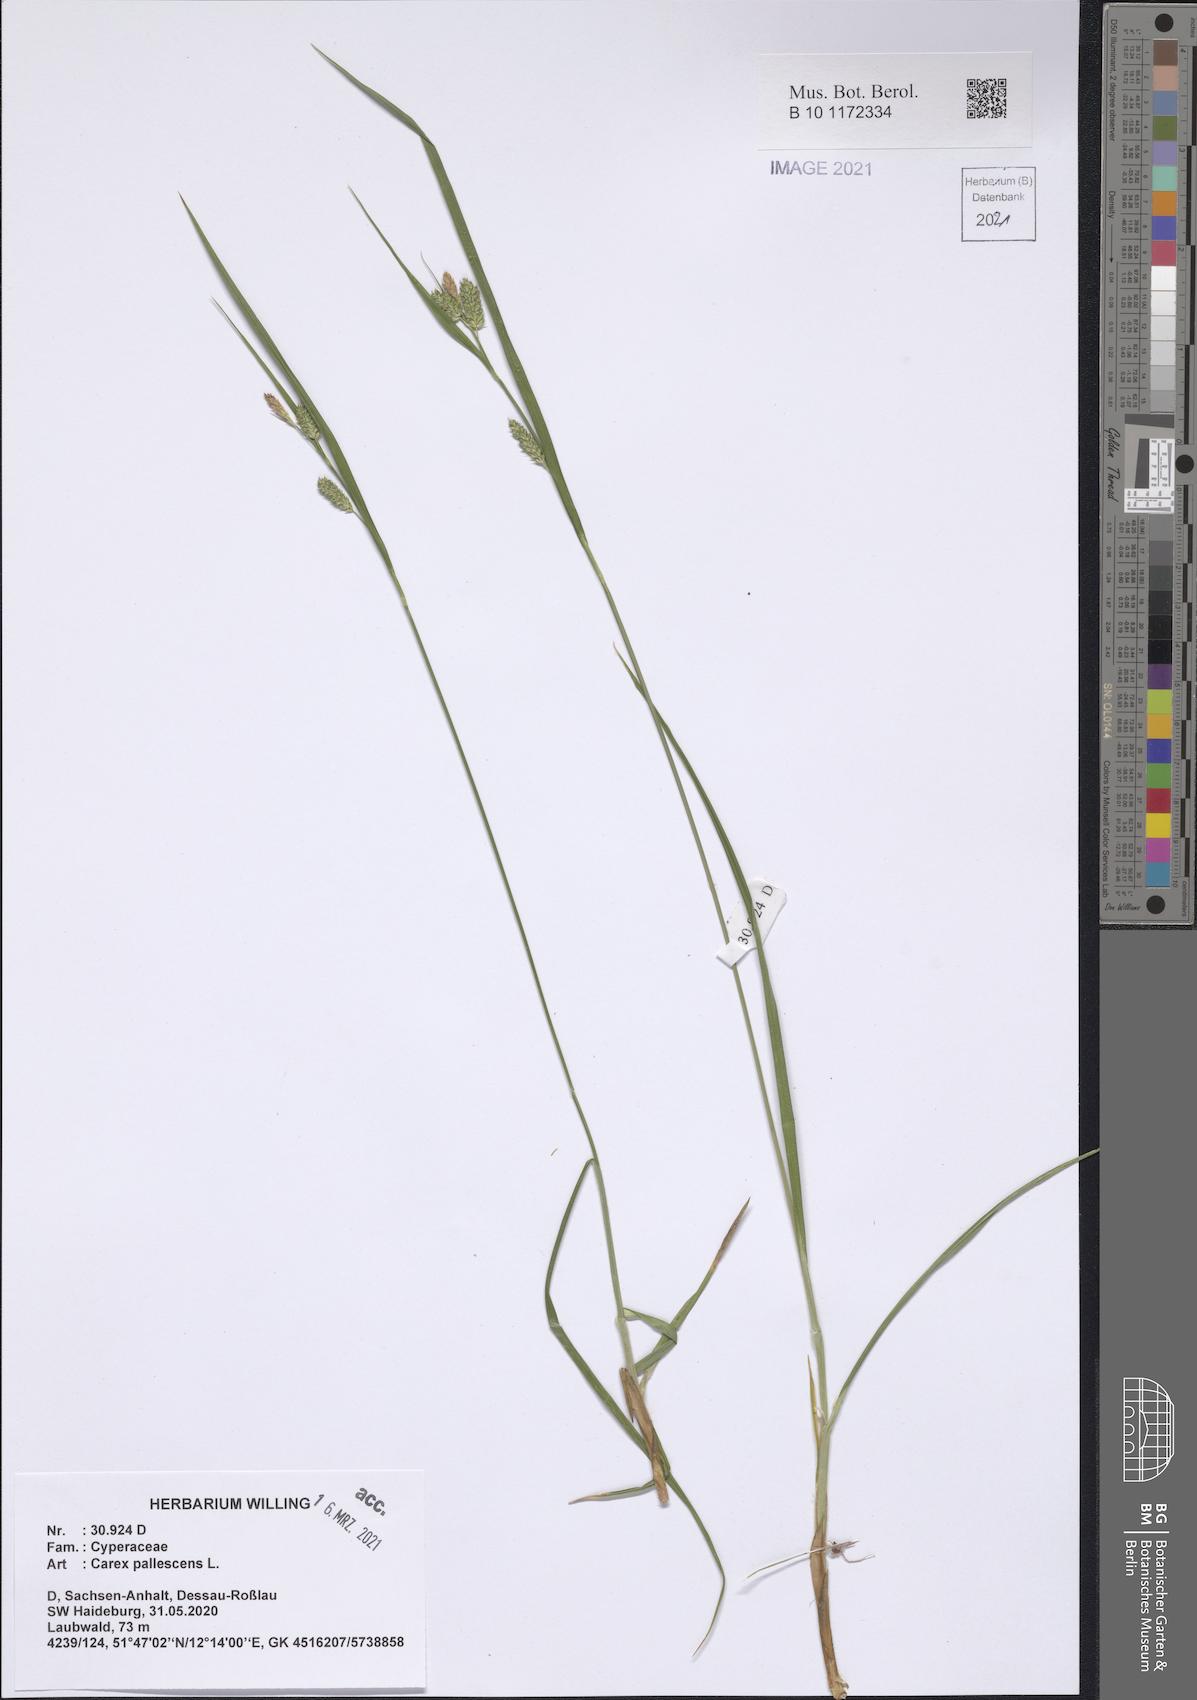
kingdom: Plantae
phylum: Tracheophyta
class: Liliopsida
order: Poales
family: Cyperaceae
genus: Carex
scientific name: Carex pallescens
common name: Pale sedge
